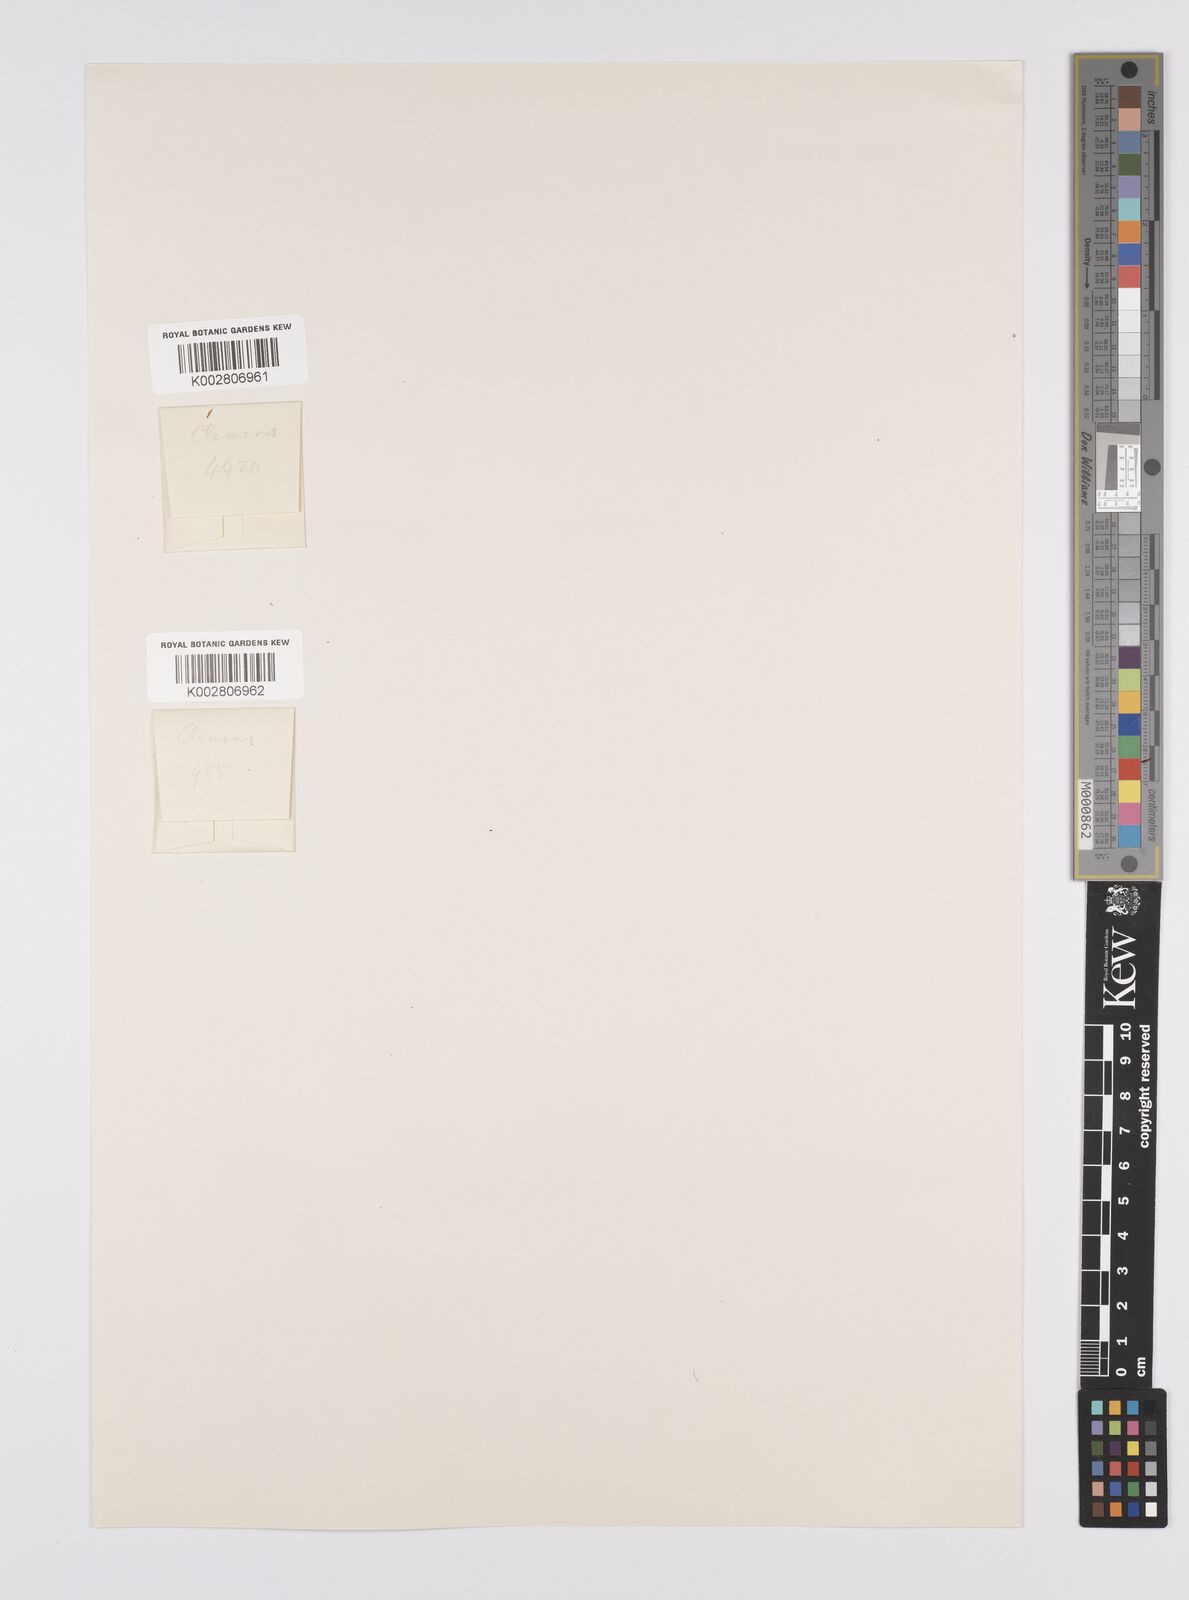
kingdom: Plantae
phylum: Tracheophyta
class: Liliopsida
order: Poales
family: Cyperaceae
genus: Carex
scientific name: Carex breviscapa
